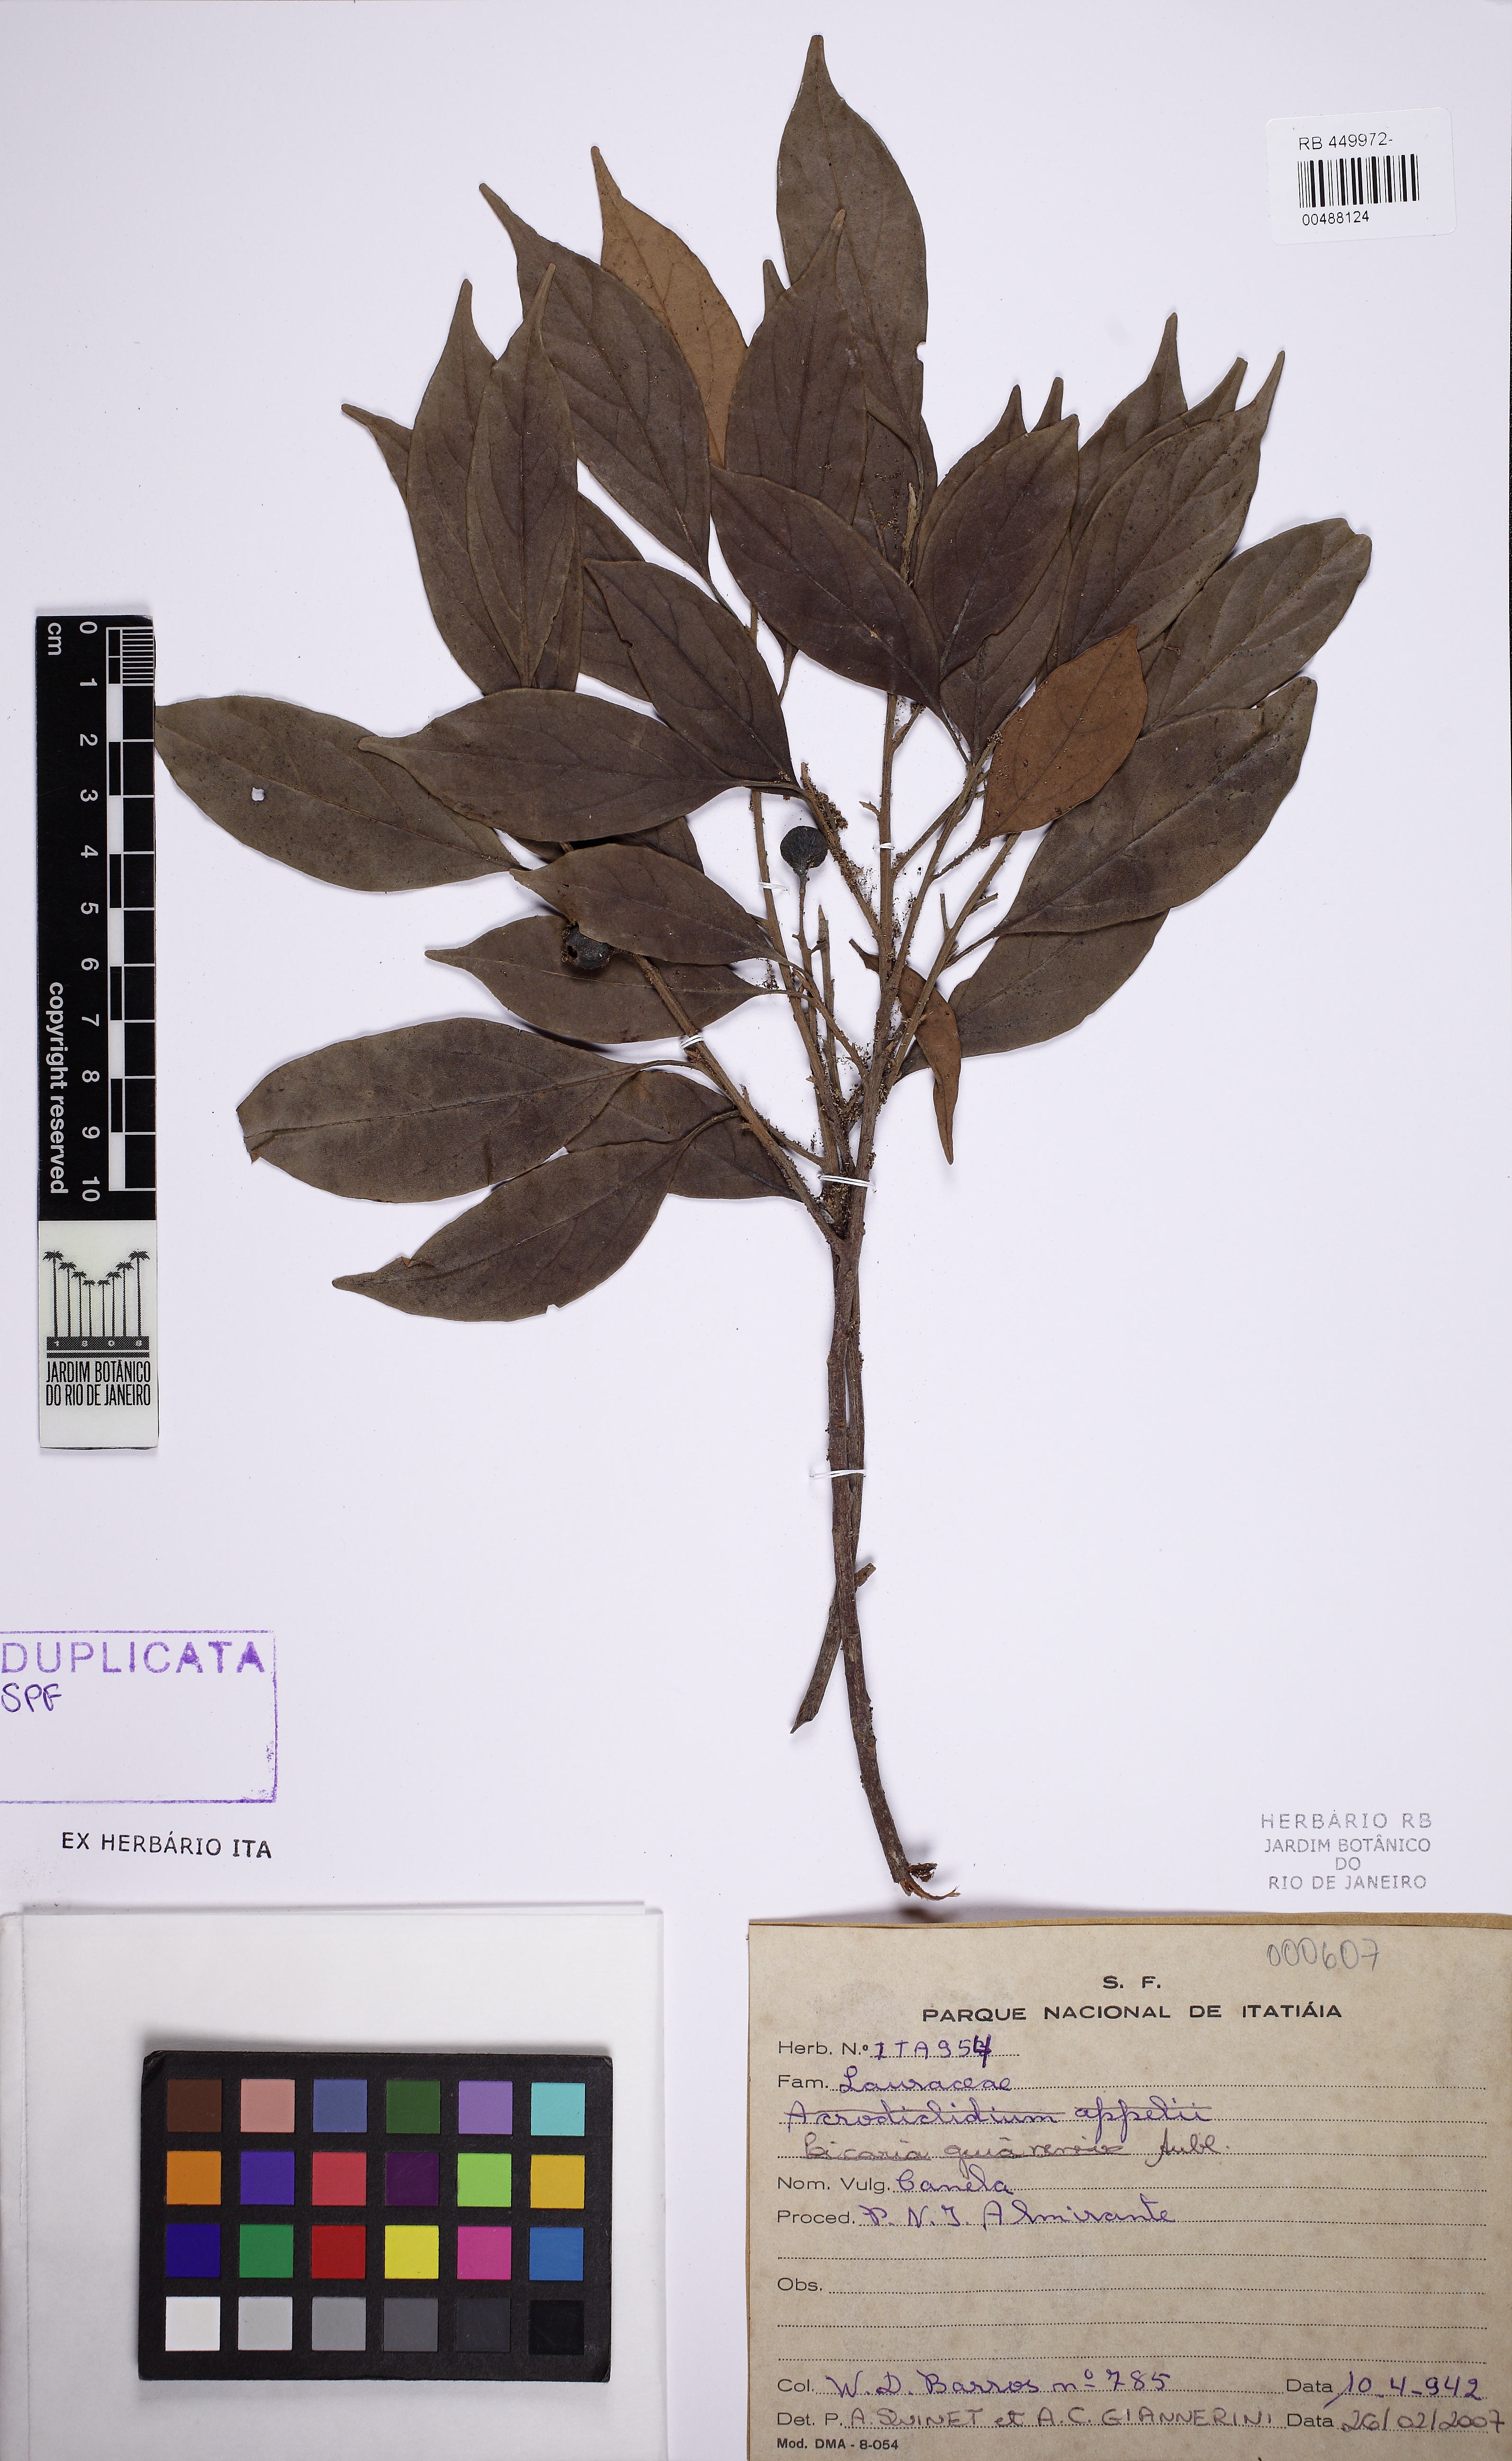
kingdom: Plantae
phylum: Tracheophyta
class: Magnoliopsida
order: Laurales
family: Lauraceae
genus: Licaria
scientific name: Licaria guianensis
